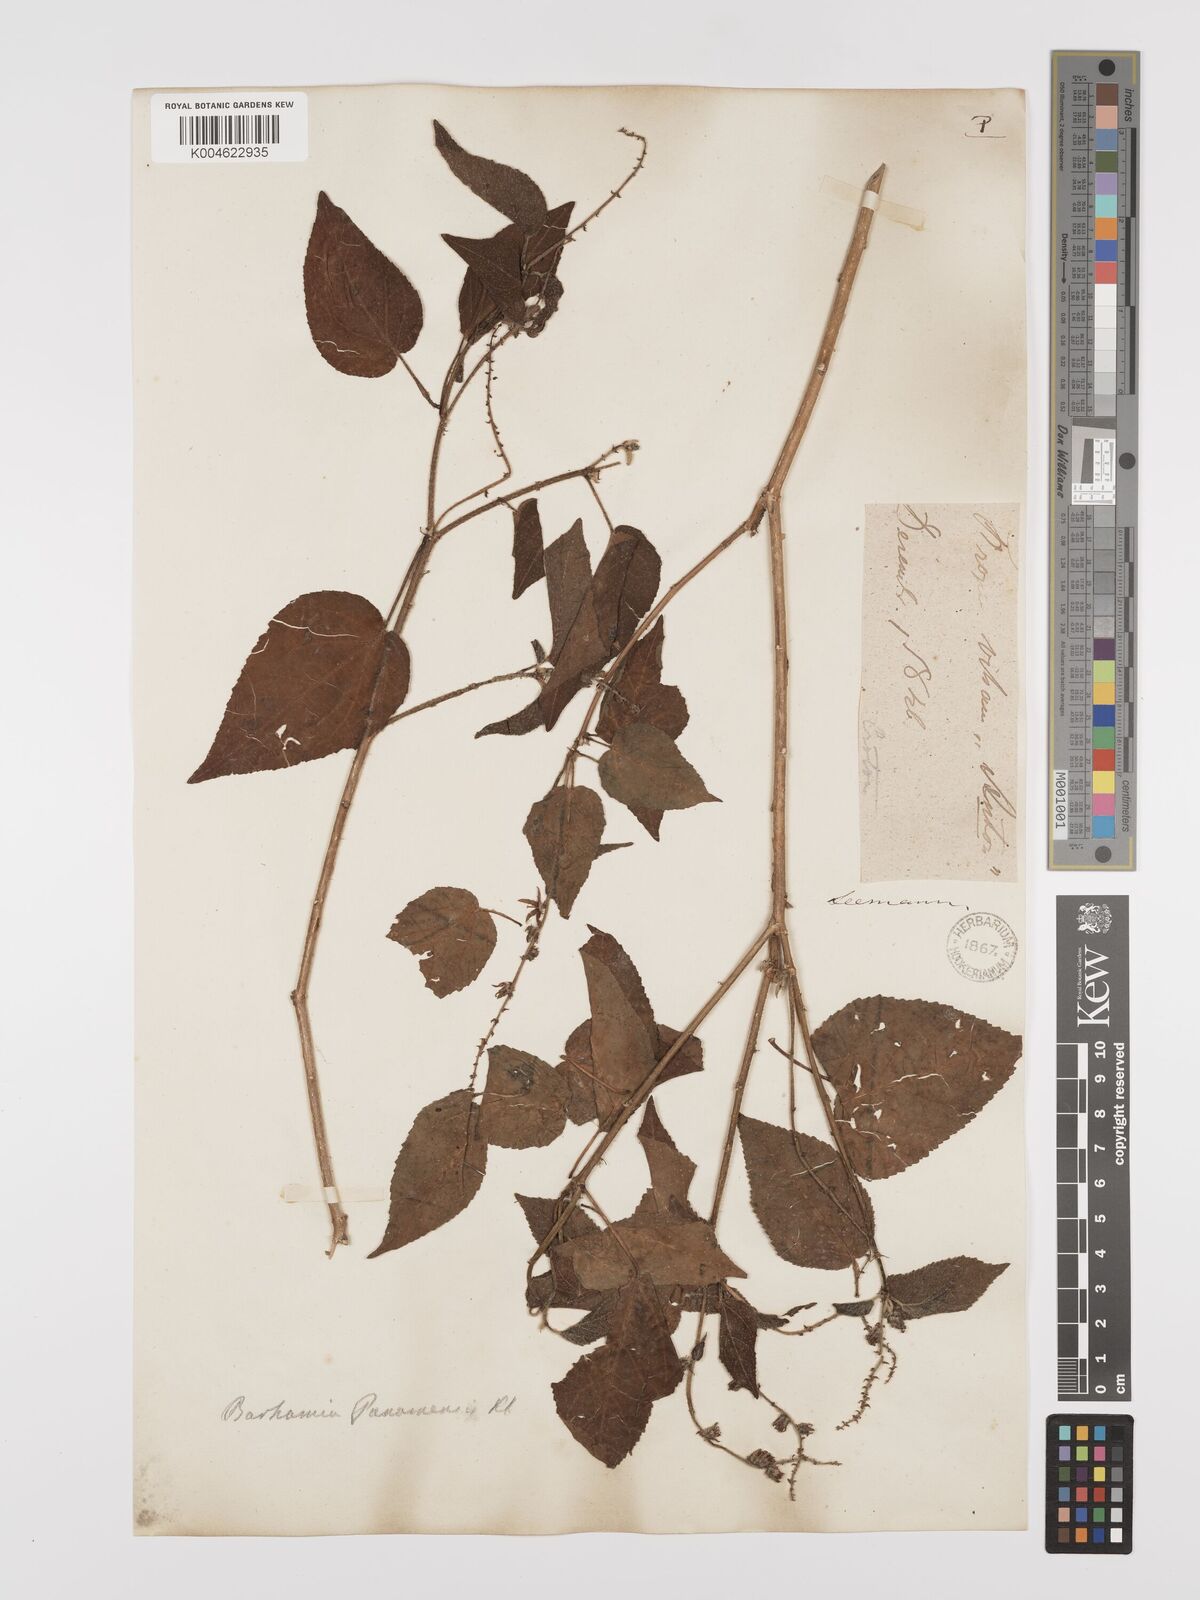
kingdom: Plantae
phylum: Tracheophyta
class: Magnoliopsida
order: Malpighiales
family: Euphorbiaceae
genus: Croton
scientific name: Croton
